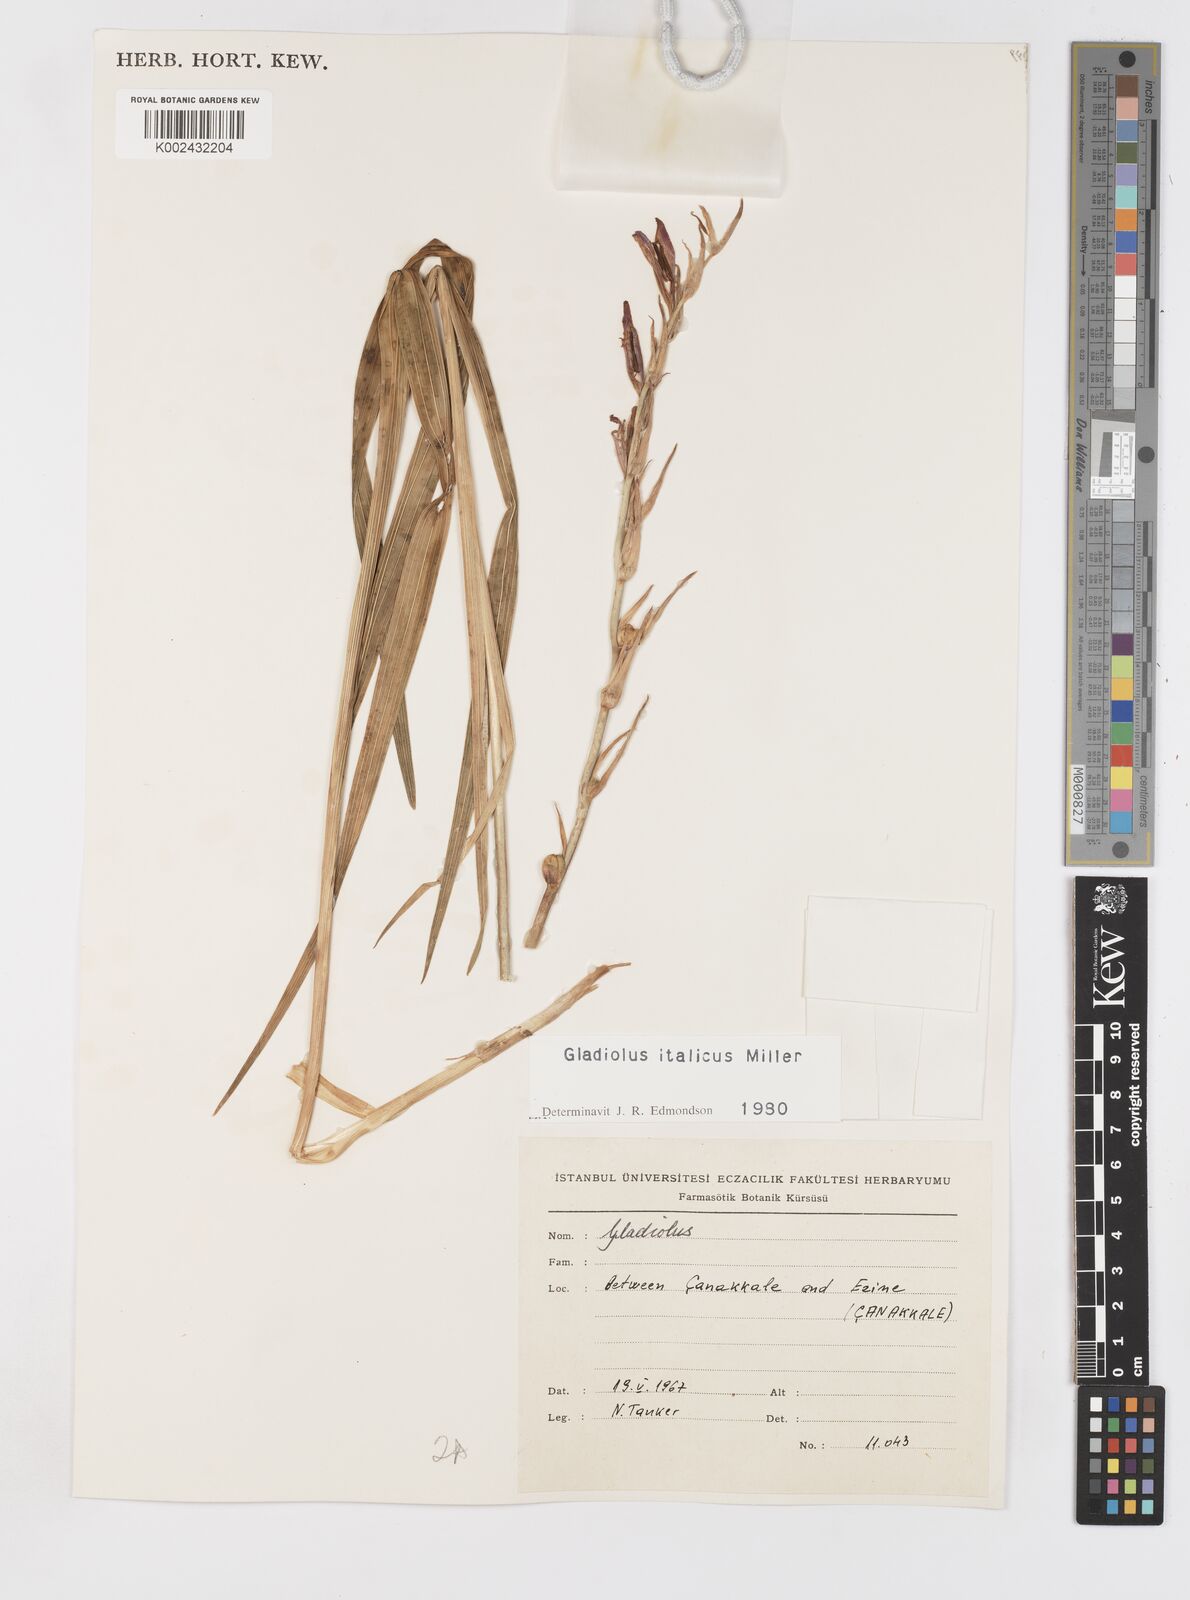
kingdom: Plantae
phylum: Tracheophyta
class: Liliopsida
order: Asparagales
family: Iridaceae
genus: Gladiolus
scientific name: Gladiolus italicus
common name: Field gladiolus
